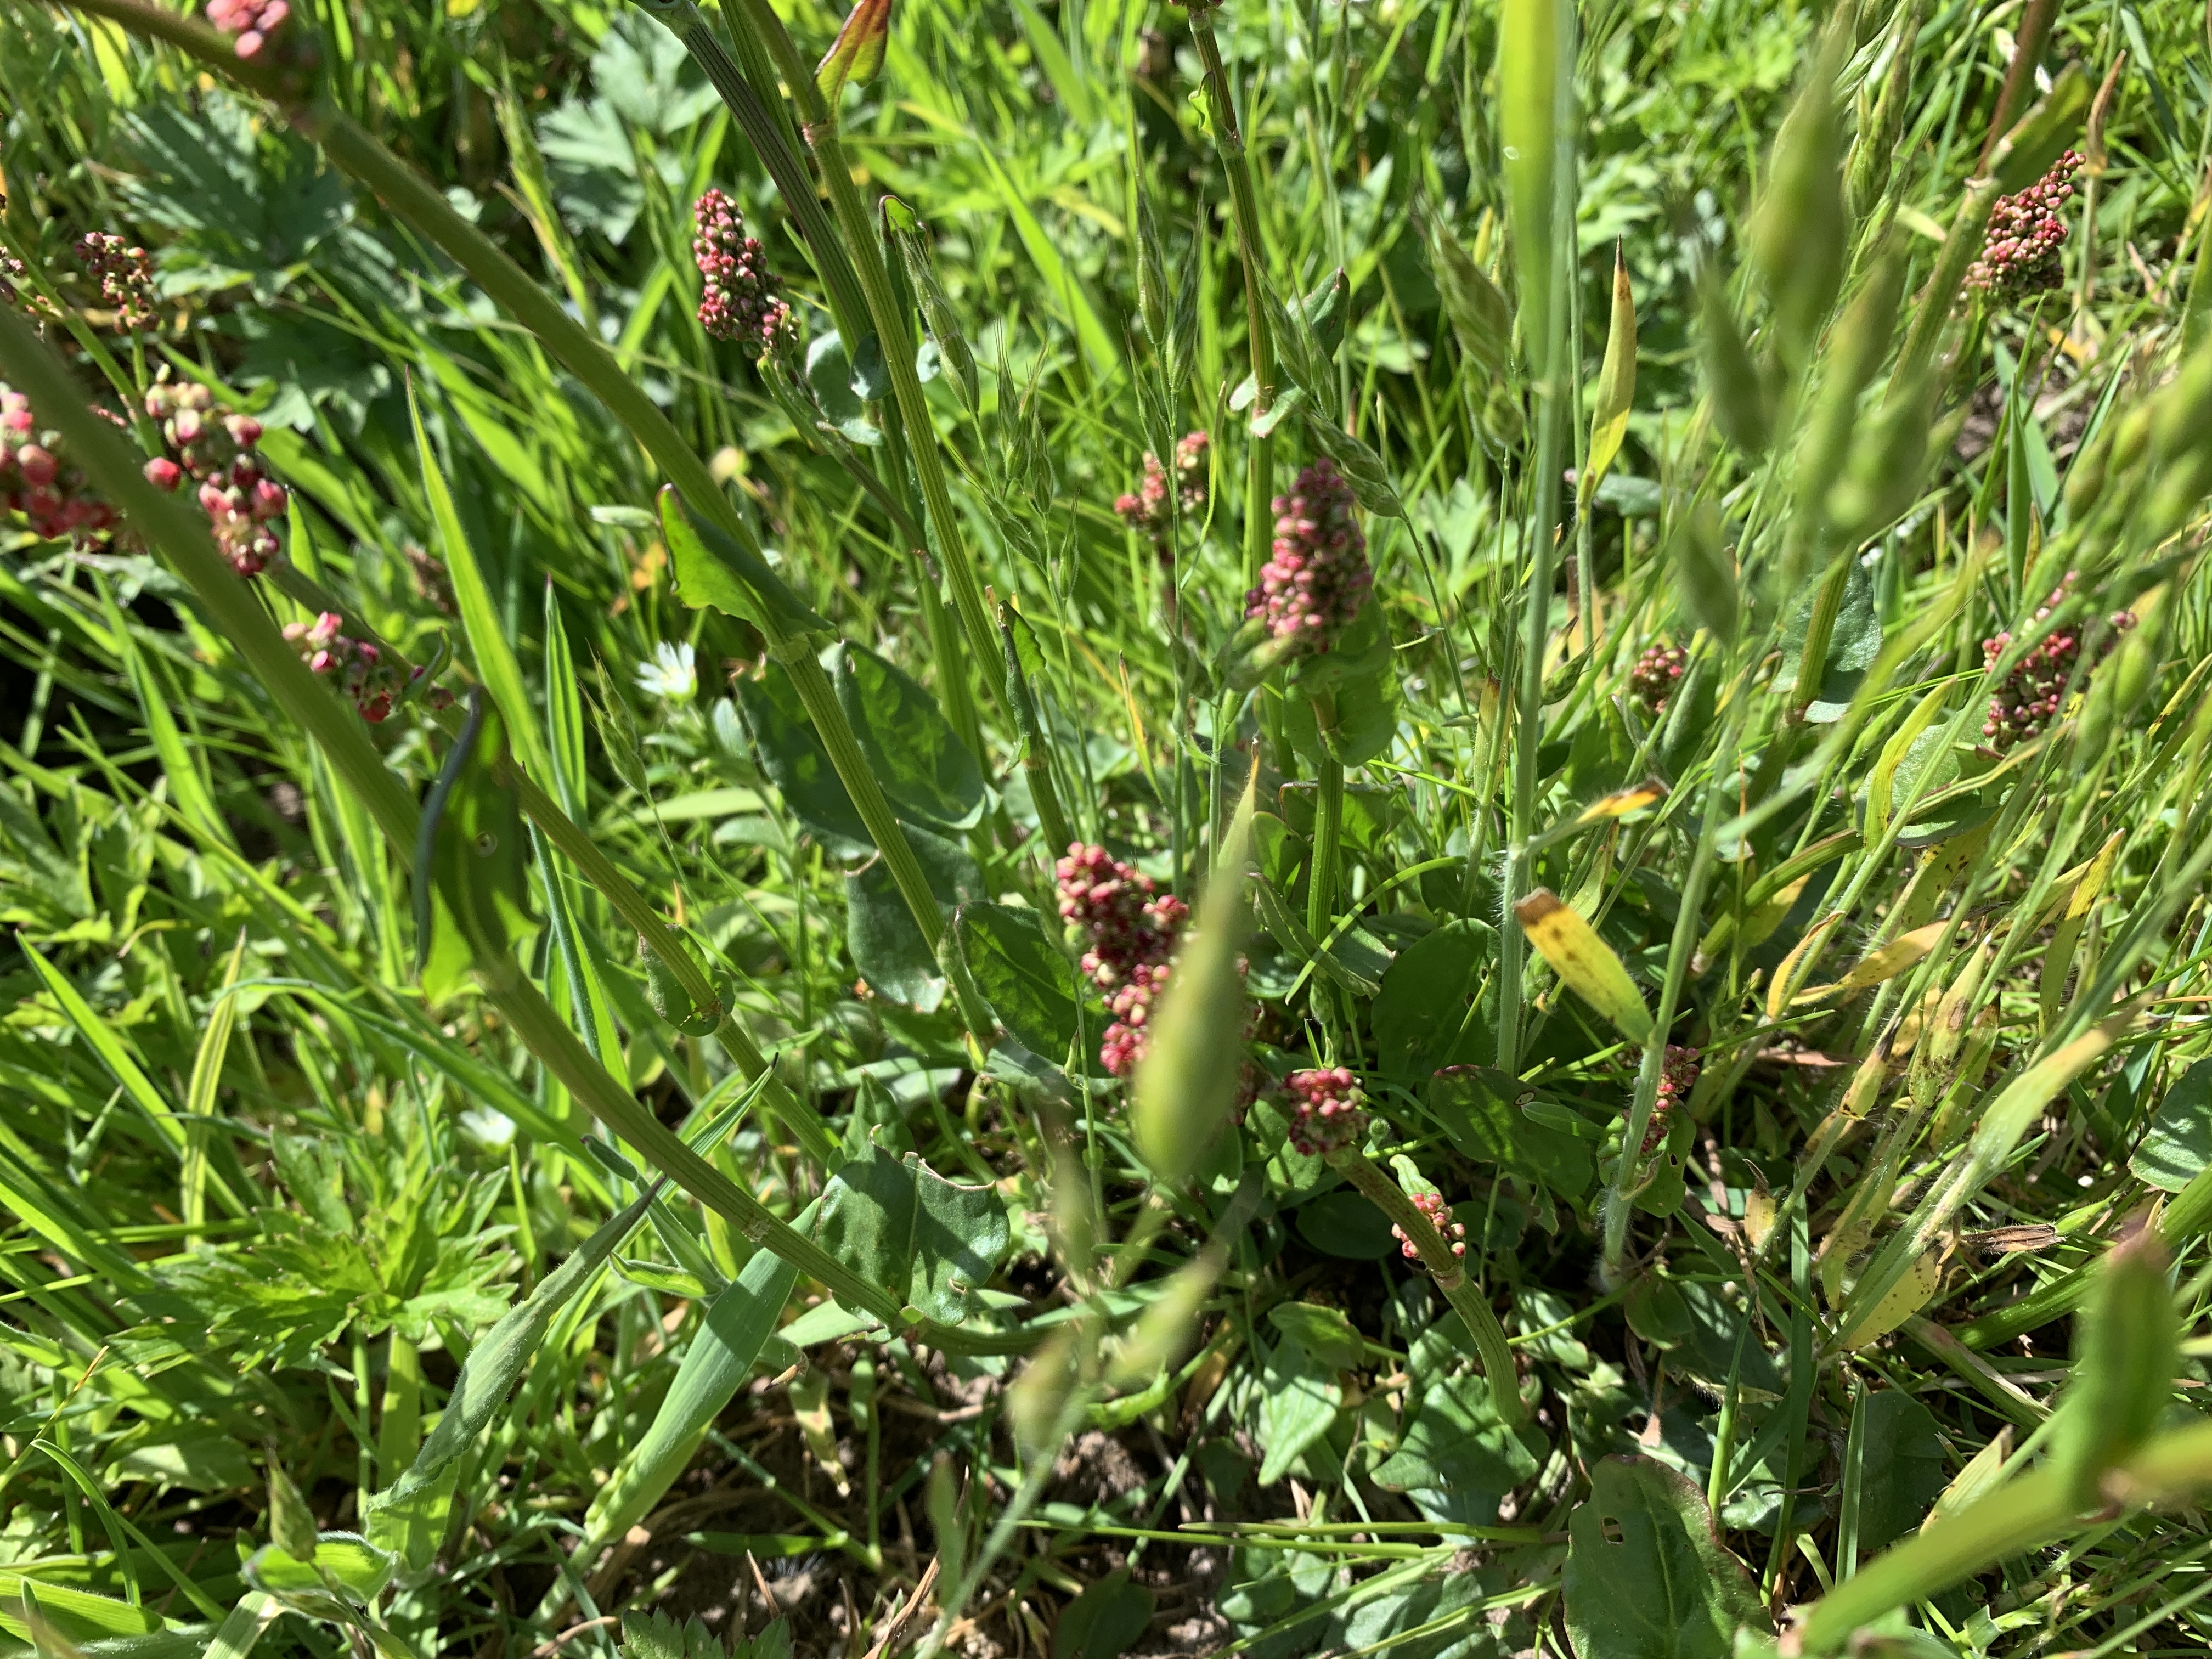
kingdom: Plantae
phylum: Tracheophyta
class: Magnoliopsida
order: Caryophyllales
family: Polygonaceae
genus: Rumex
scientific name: Rumex acetosa
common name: Almindelig syre
